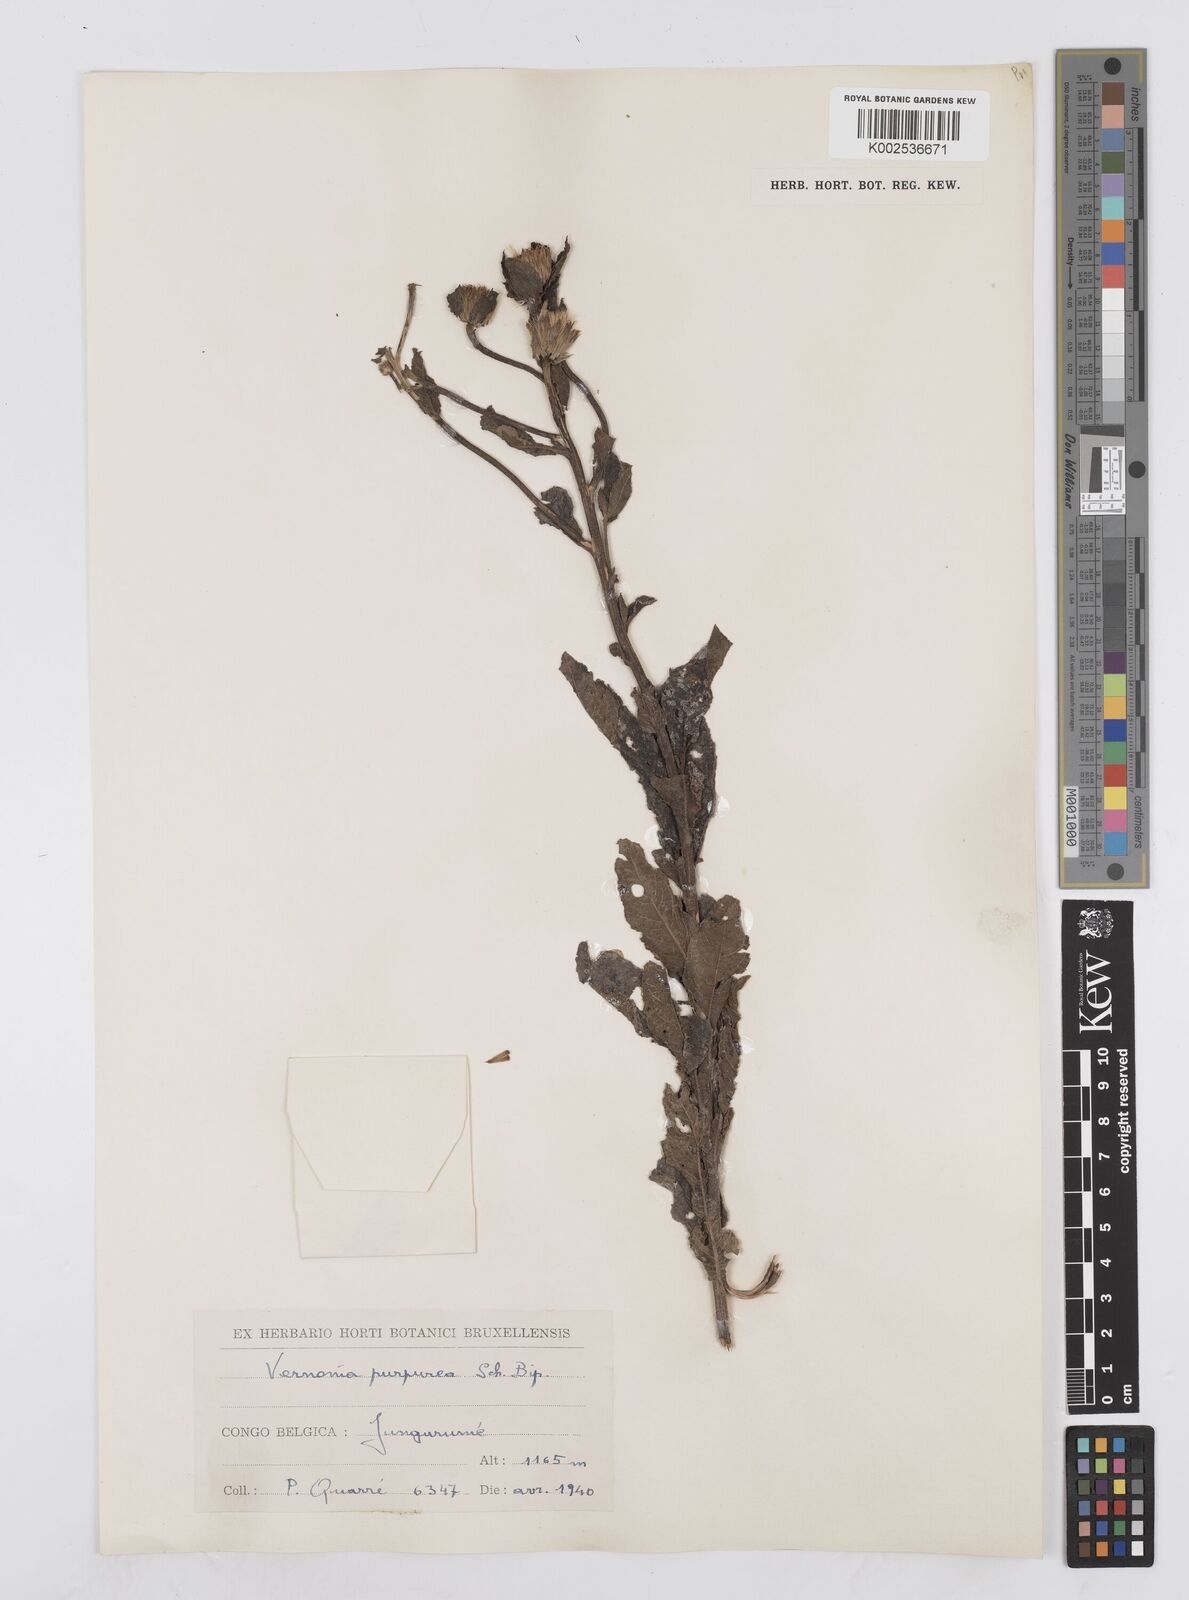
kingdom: Plantae
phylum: Tracheophyta
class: Magnoliopsida
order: Asterales
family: Asteraceae
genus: Nothovernonia
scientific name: Nothovernonia purpurea
